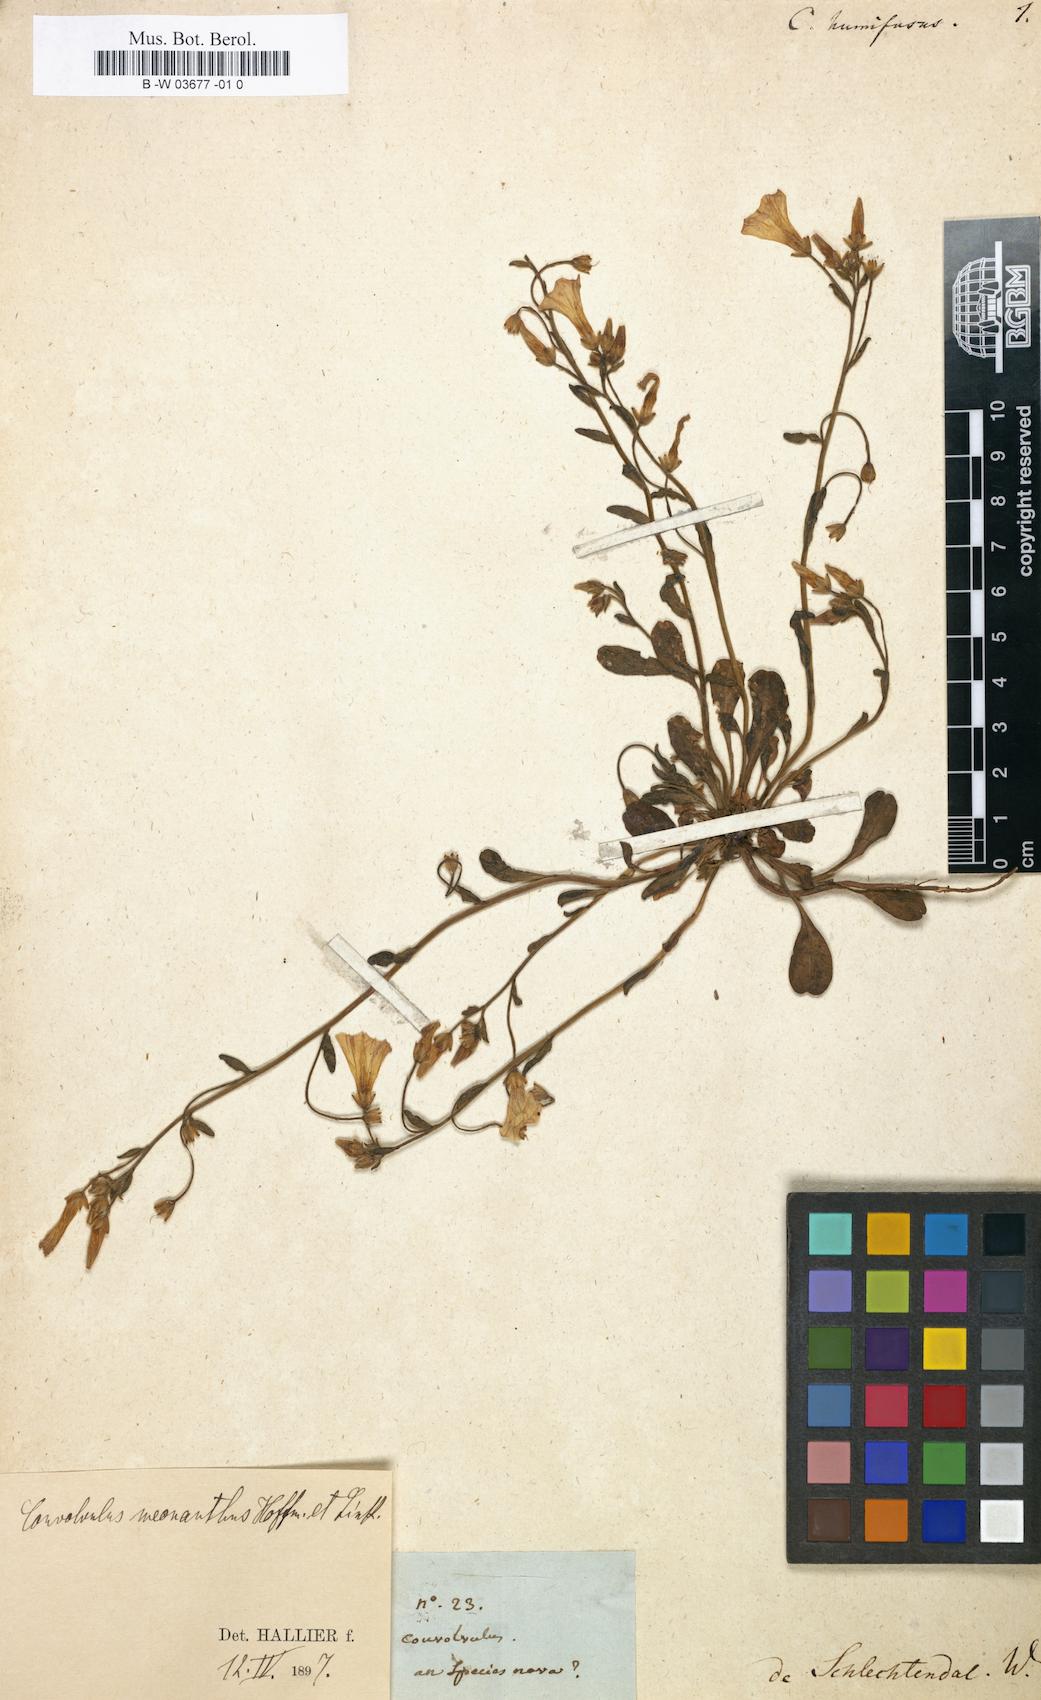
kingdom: Plantae
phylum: Tracheophyta
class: Magnoliopsida
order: Solanales
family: Convolvulaceae
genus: Convolvulus
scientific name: Convolvulus
